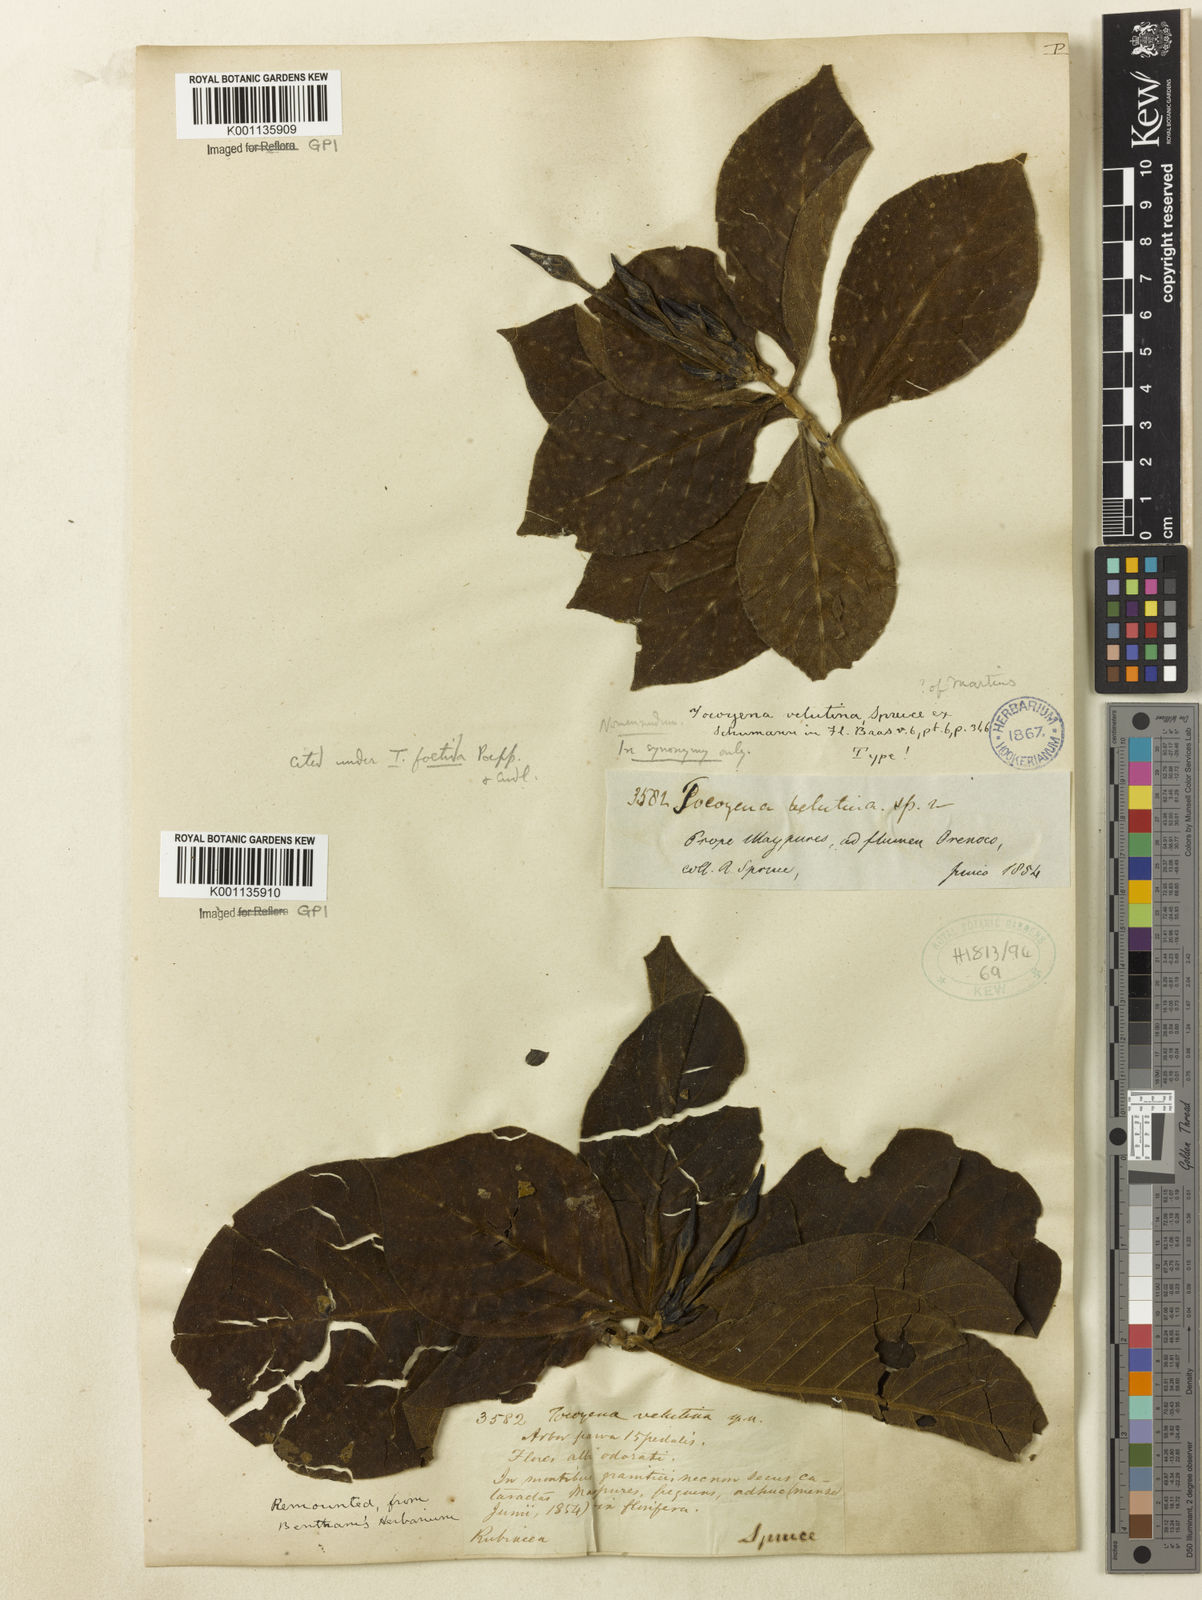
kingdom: Plantae
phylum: Tracheophyta
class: Magnoliopsida
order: Gentianales
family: Rubiaceae
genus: Tocoyena
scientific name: Tocoyena neglecta
